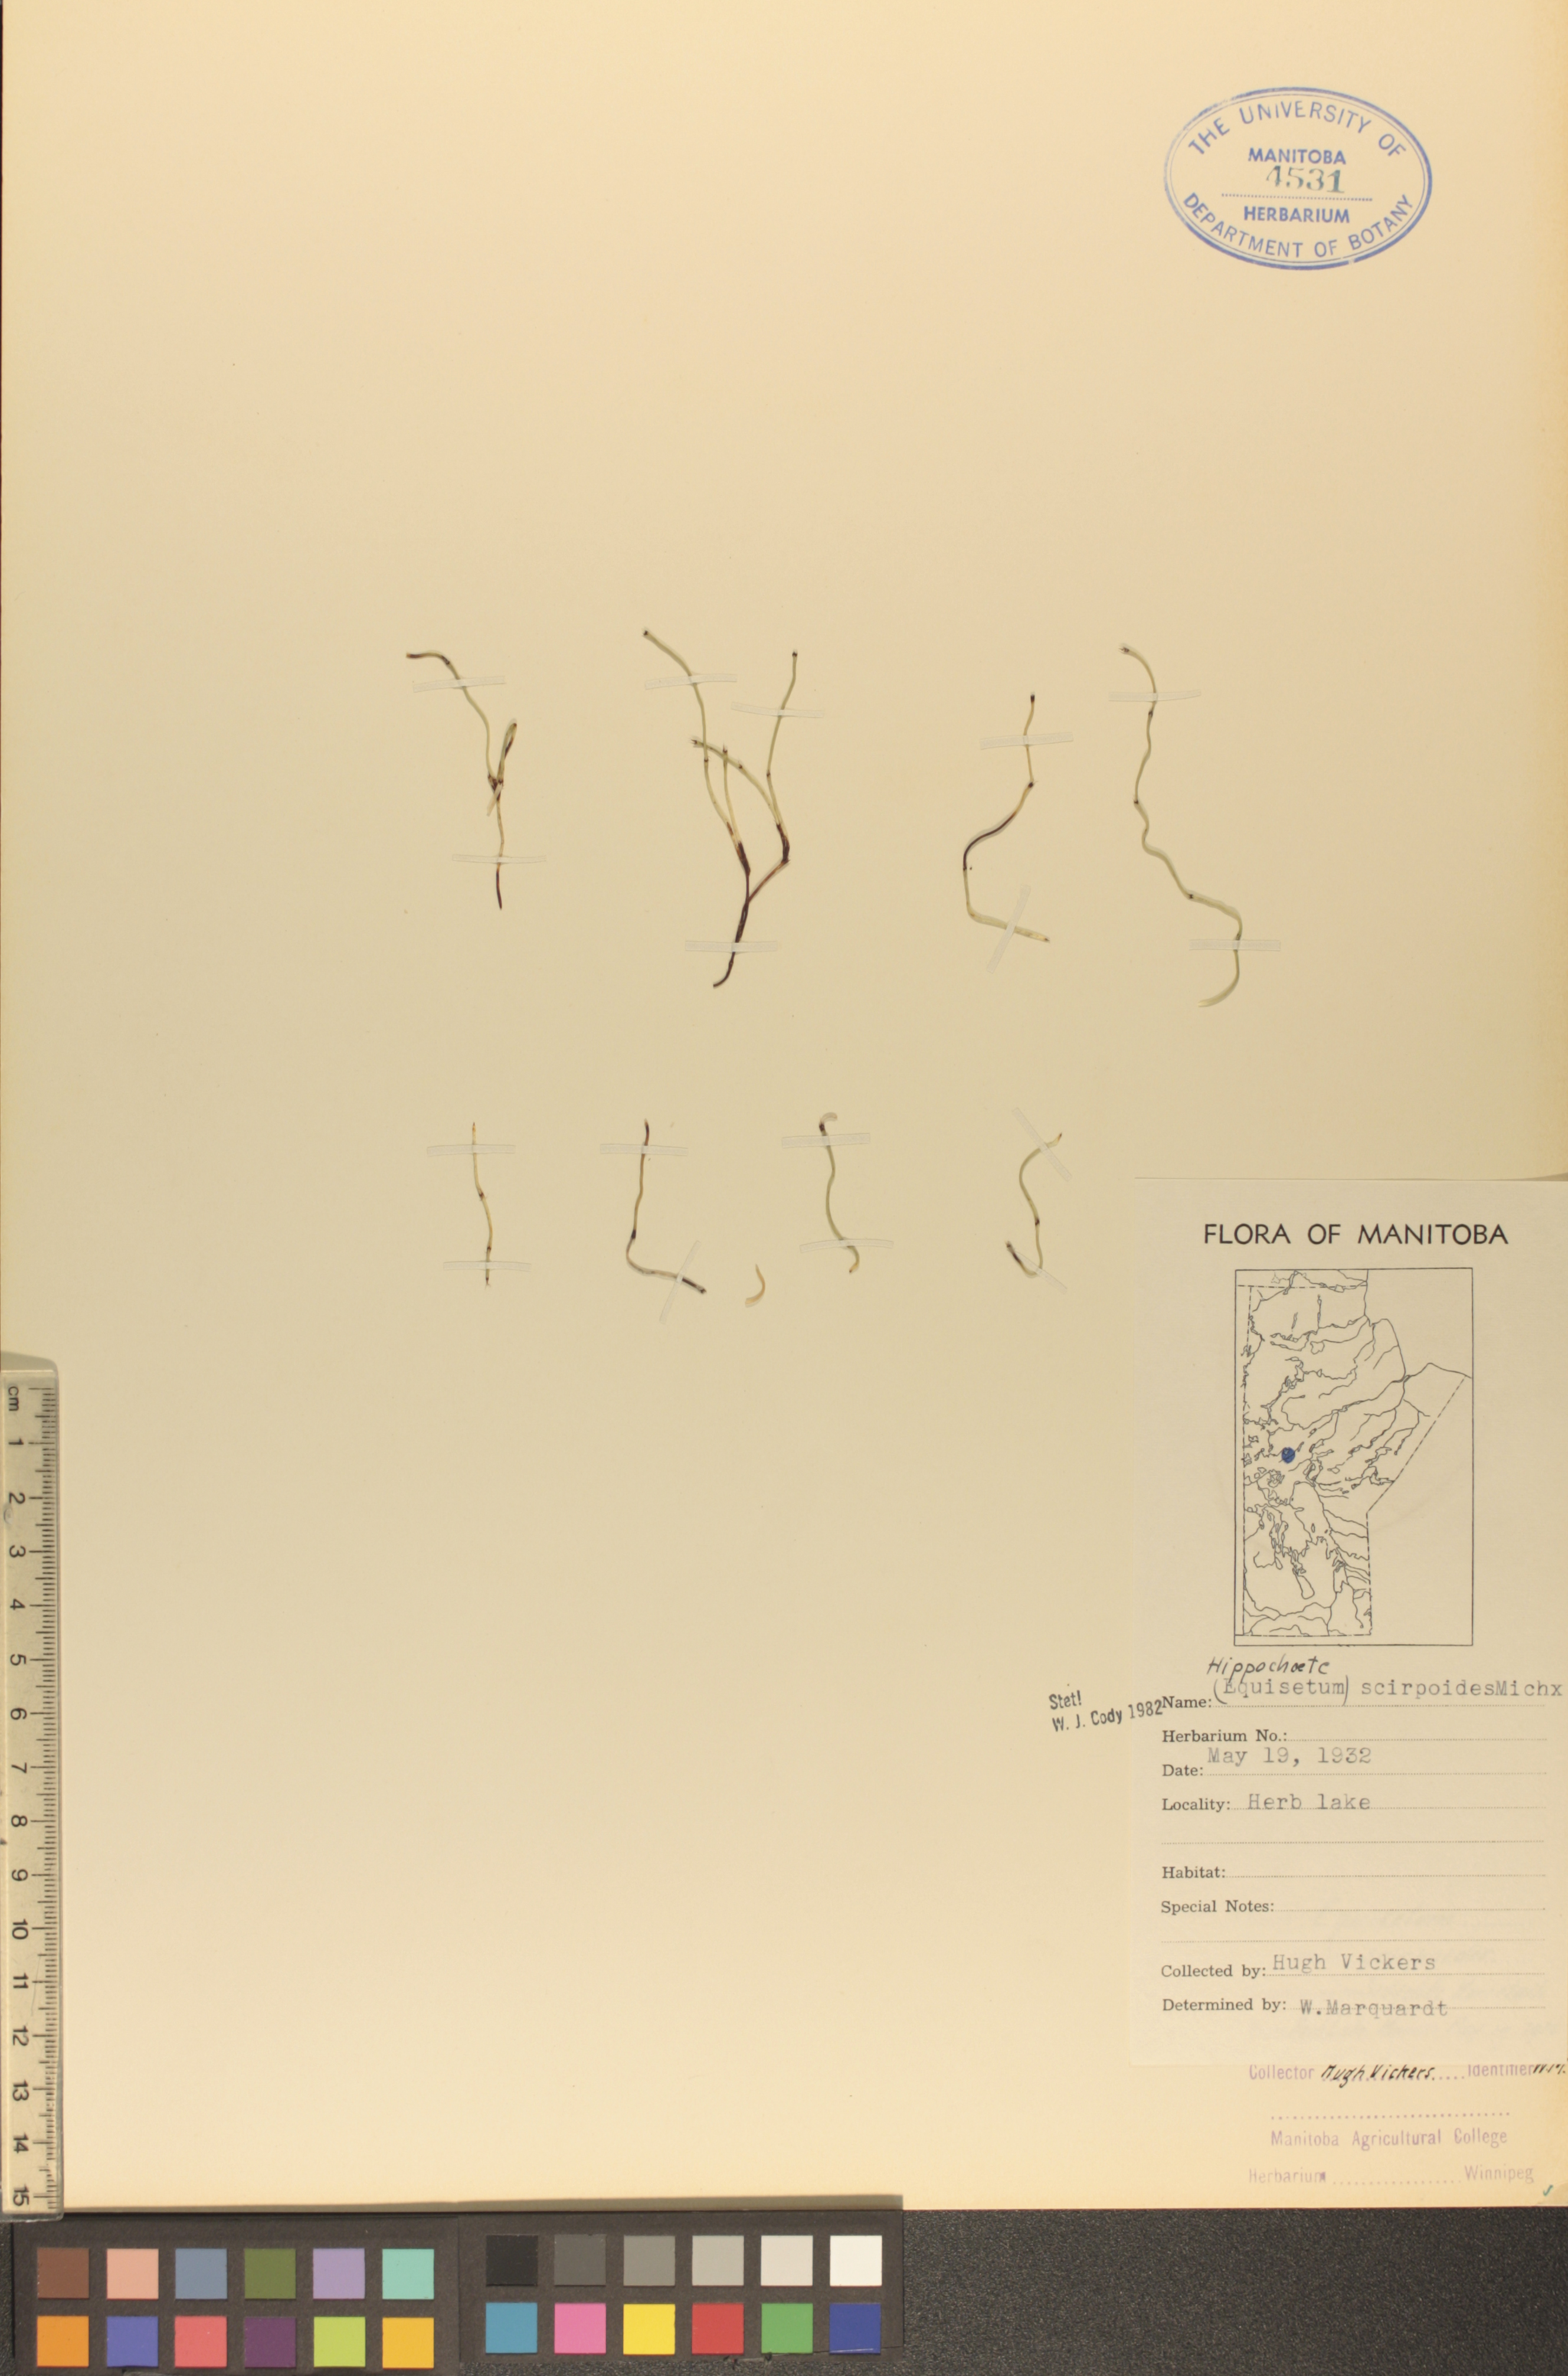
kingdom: Plantae
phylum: Tracheophyta
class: Polypodiopsida
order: Equisetales
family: Equisetaceae
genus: Equisetum
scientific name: Equisetum scirpoides
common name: Delicate horsetail
